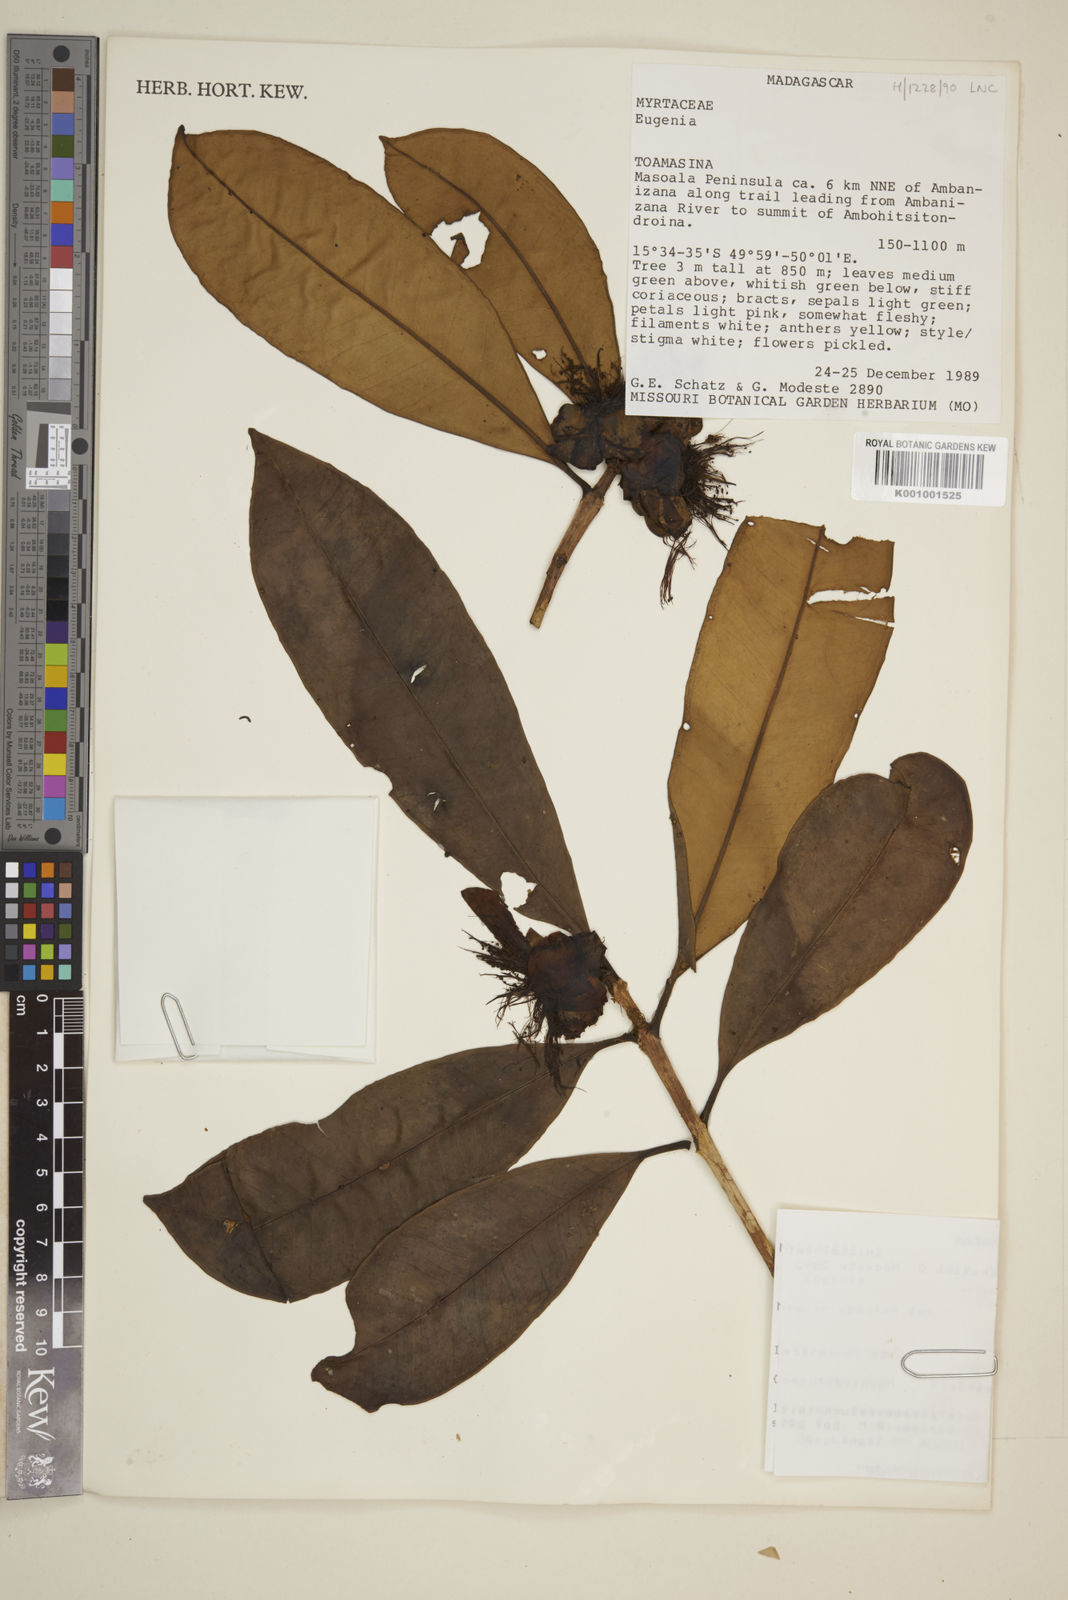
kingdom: Plantae
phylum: Tracheophyta
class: Magnoliopsida
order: Myrtales
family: Myrtaceae
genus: Eugenia
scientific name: Eugenia
